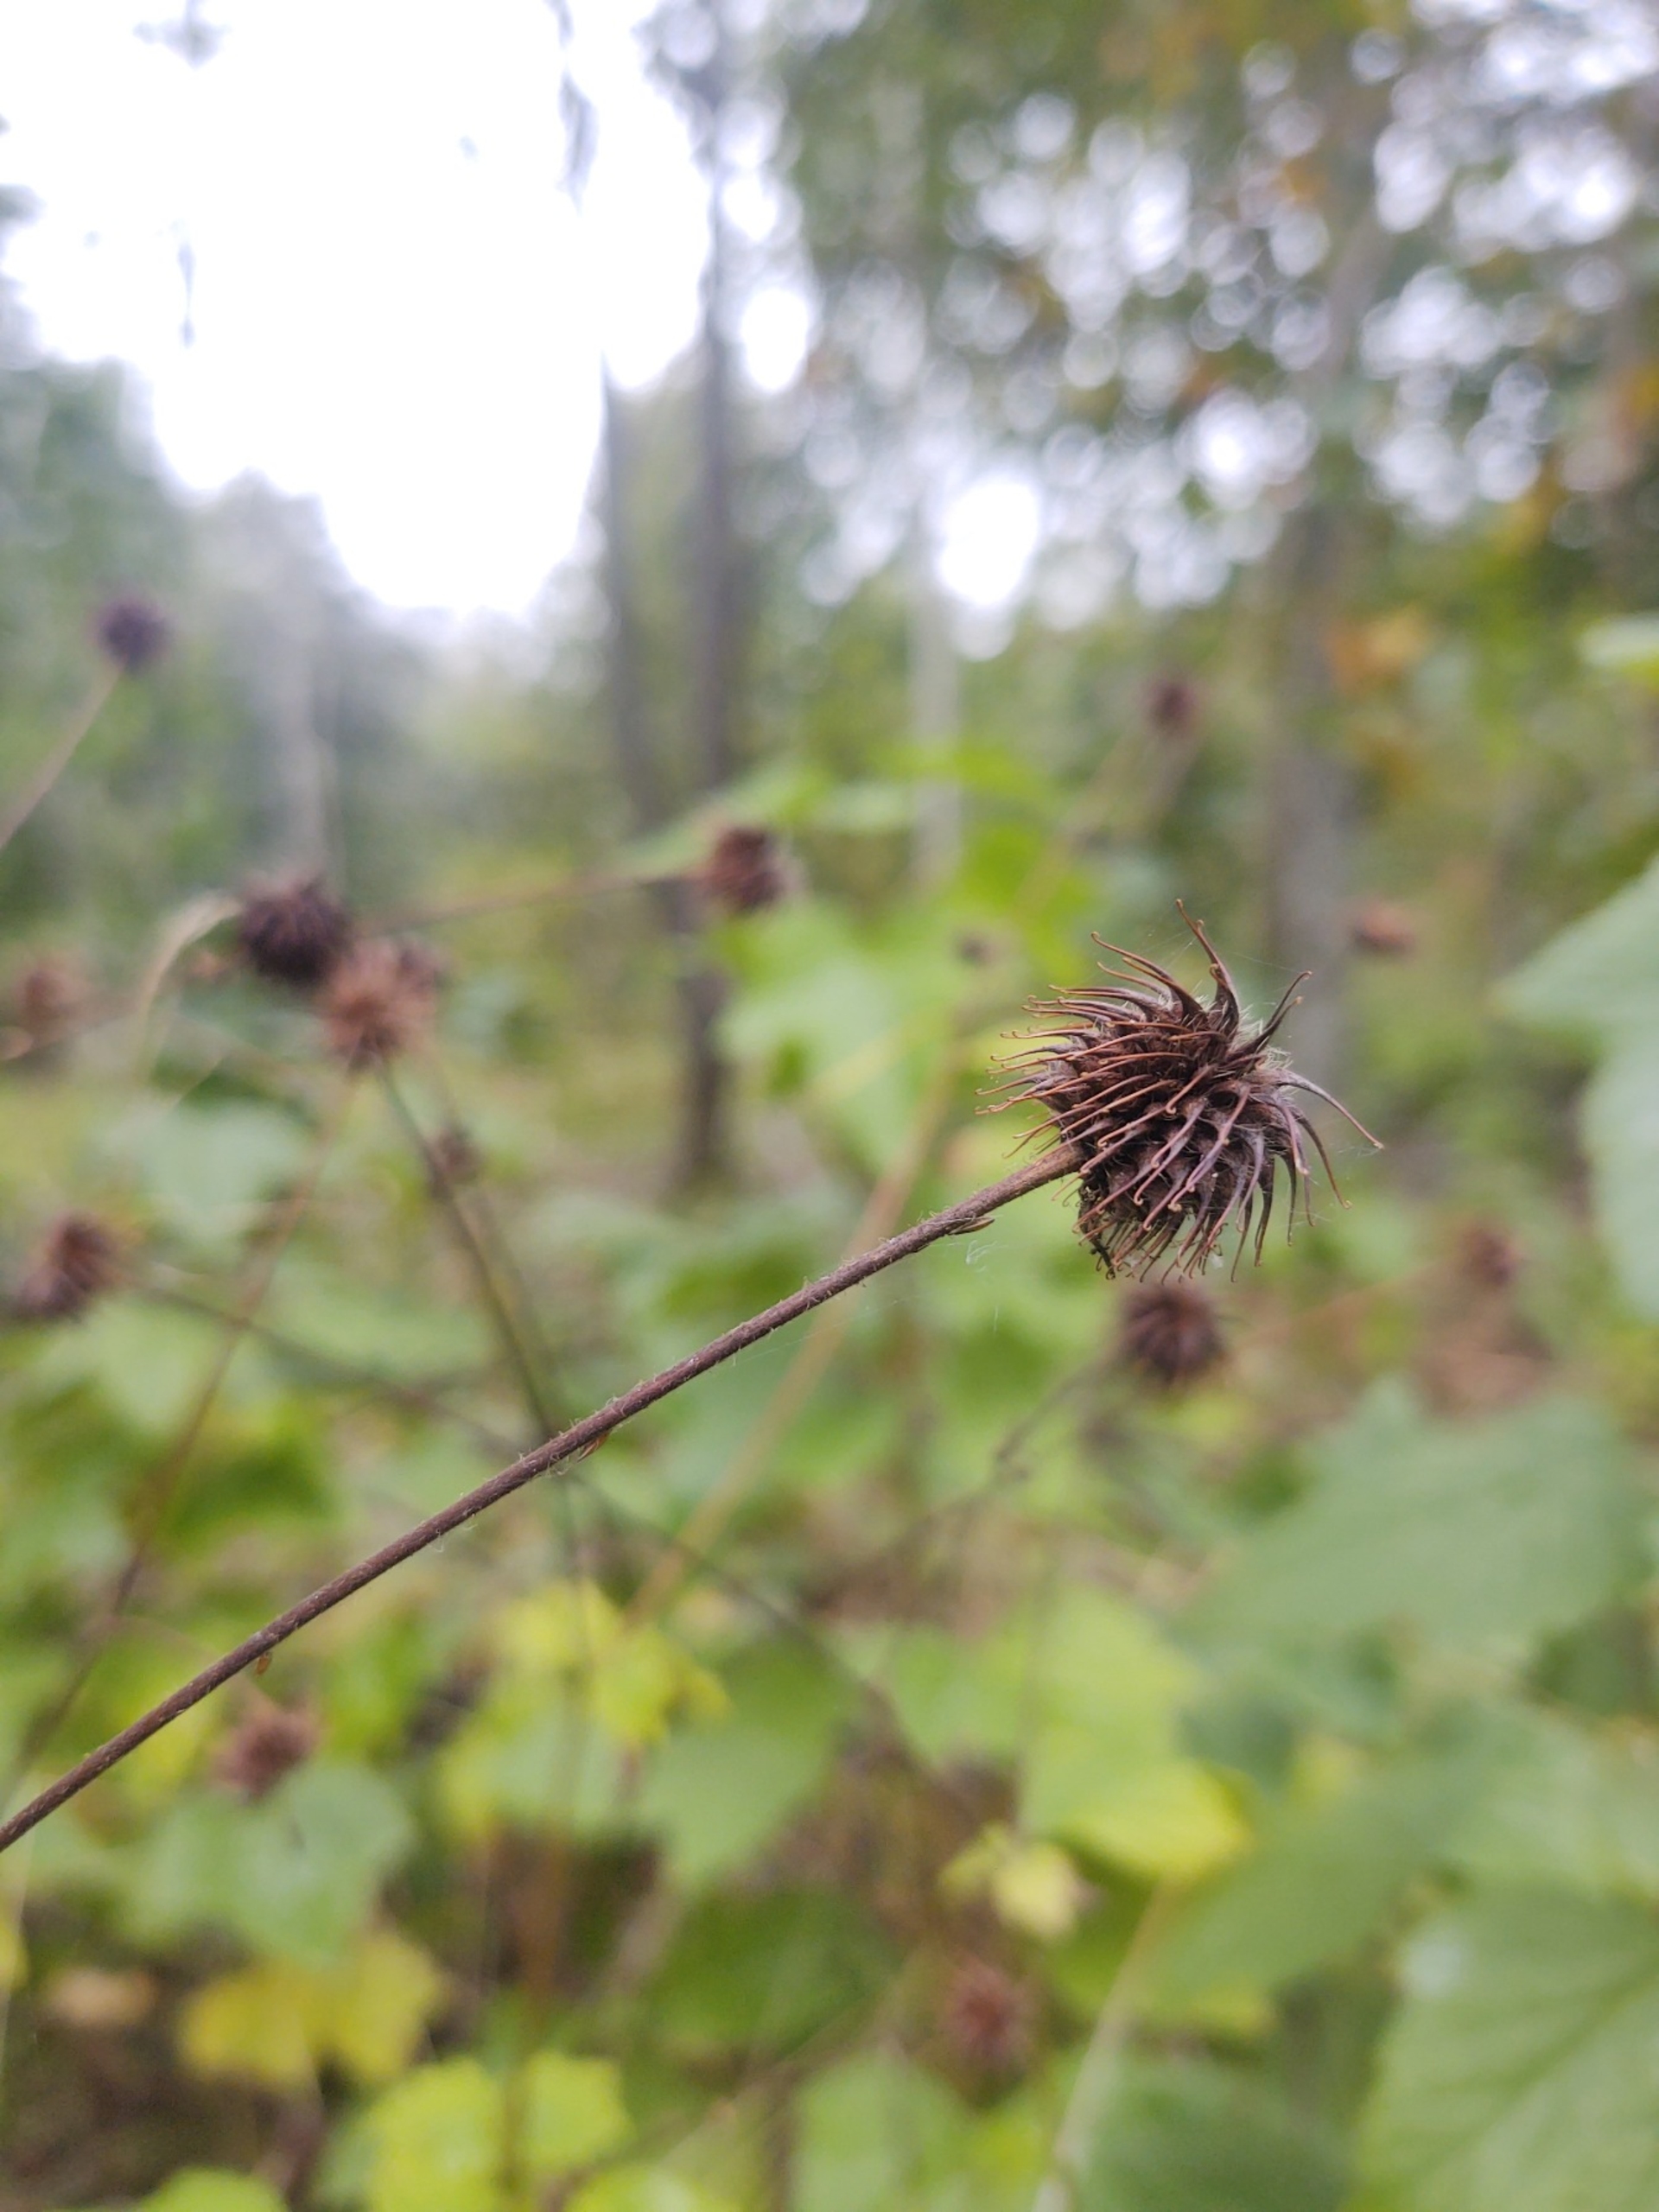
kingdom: Plantae
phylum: Tracheophyta
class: Magnoliopsida
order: Rosales
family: Rosaceae
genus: Geum
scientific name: Geum urbanum
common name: Feber-nellikerod
